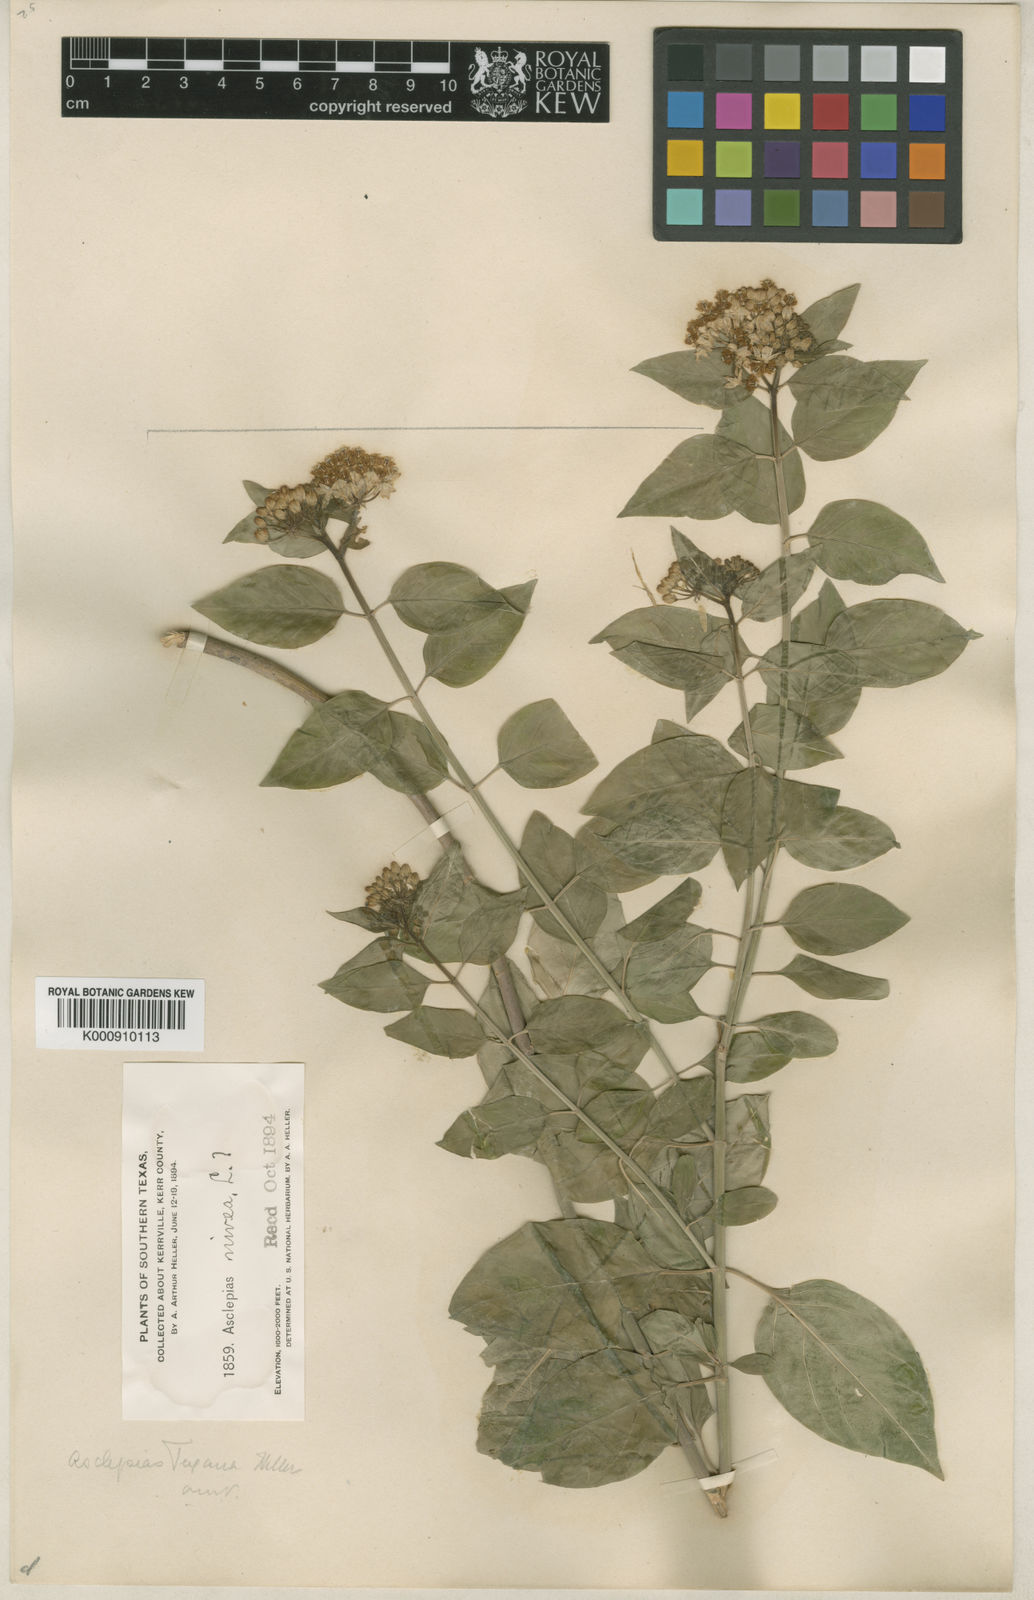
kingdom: Plantae
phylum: Tracheophyta
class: Magnoliopsida
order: Gentianales
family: Apocynaceae
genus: Asclepias
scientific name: Asclepias texana
